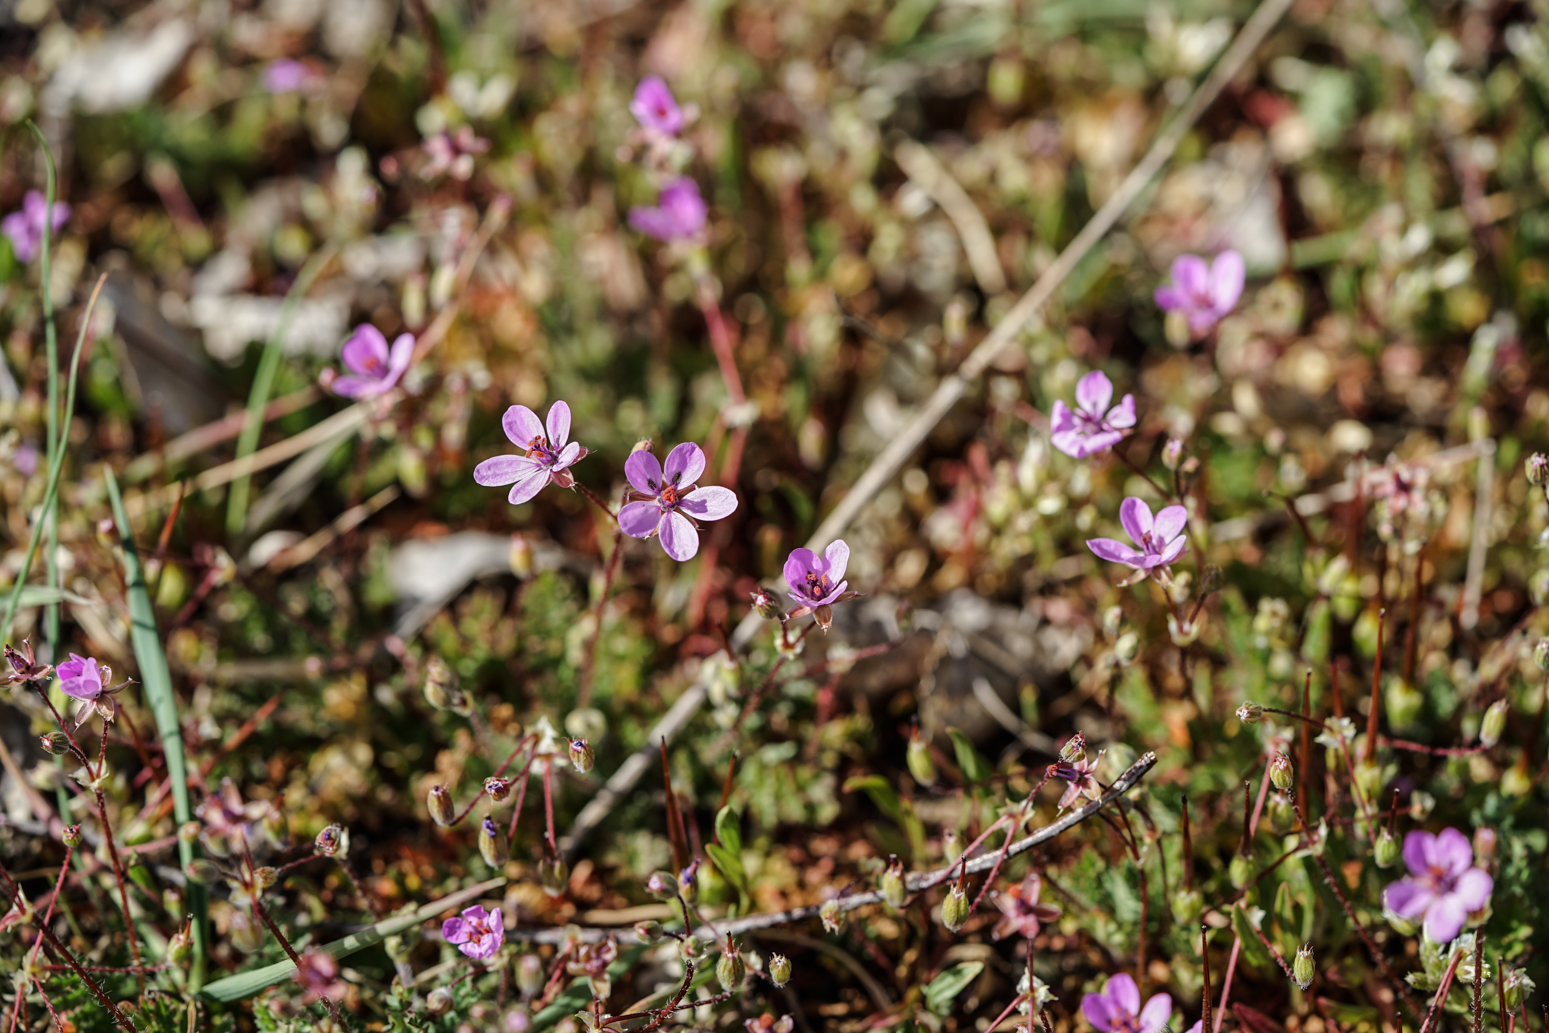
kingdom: Plantae
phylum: Tracheophyta
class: Magnoliopsida
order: Geraniales
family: Geraniaceae
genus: Erodium
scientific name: Erodium cicutarium
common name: Common stork's-bill
